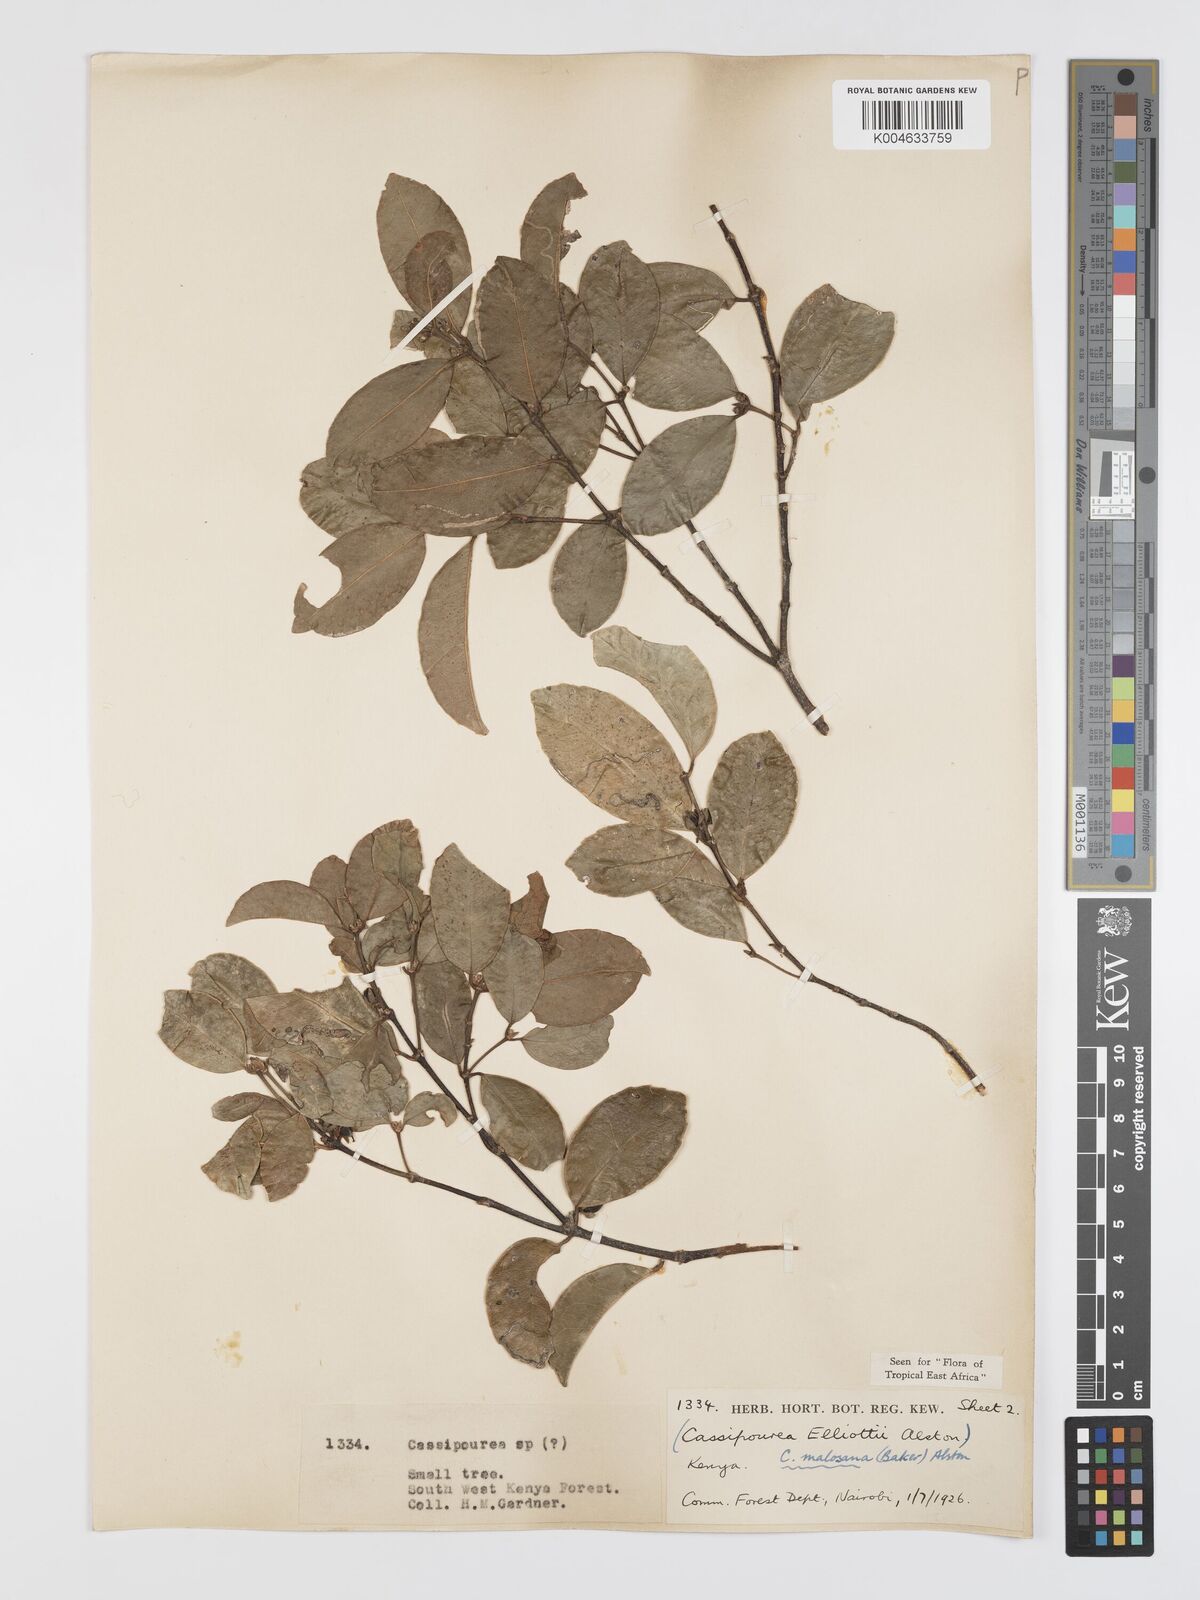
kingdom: Plantae
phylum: Tracheophyta
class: Magnoliopsida
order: Malpighiales
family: Rhizophoraceae
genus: Cassipourea
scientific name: Cassipourea
